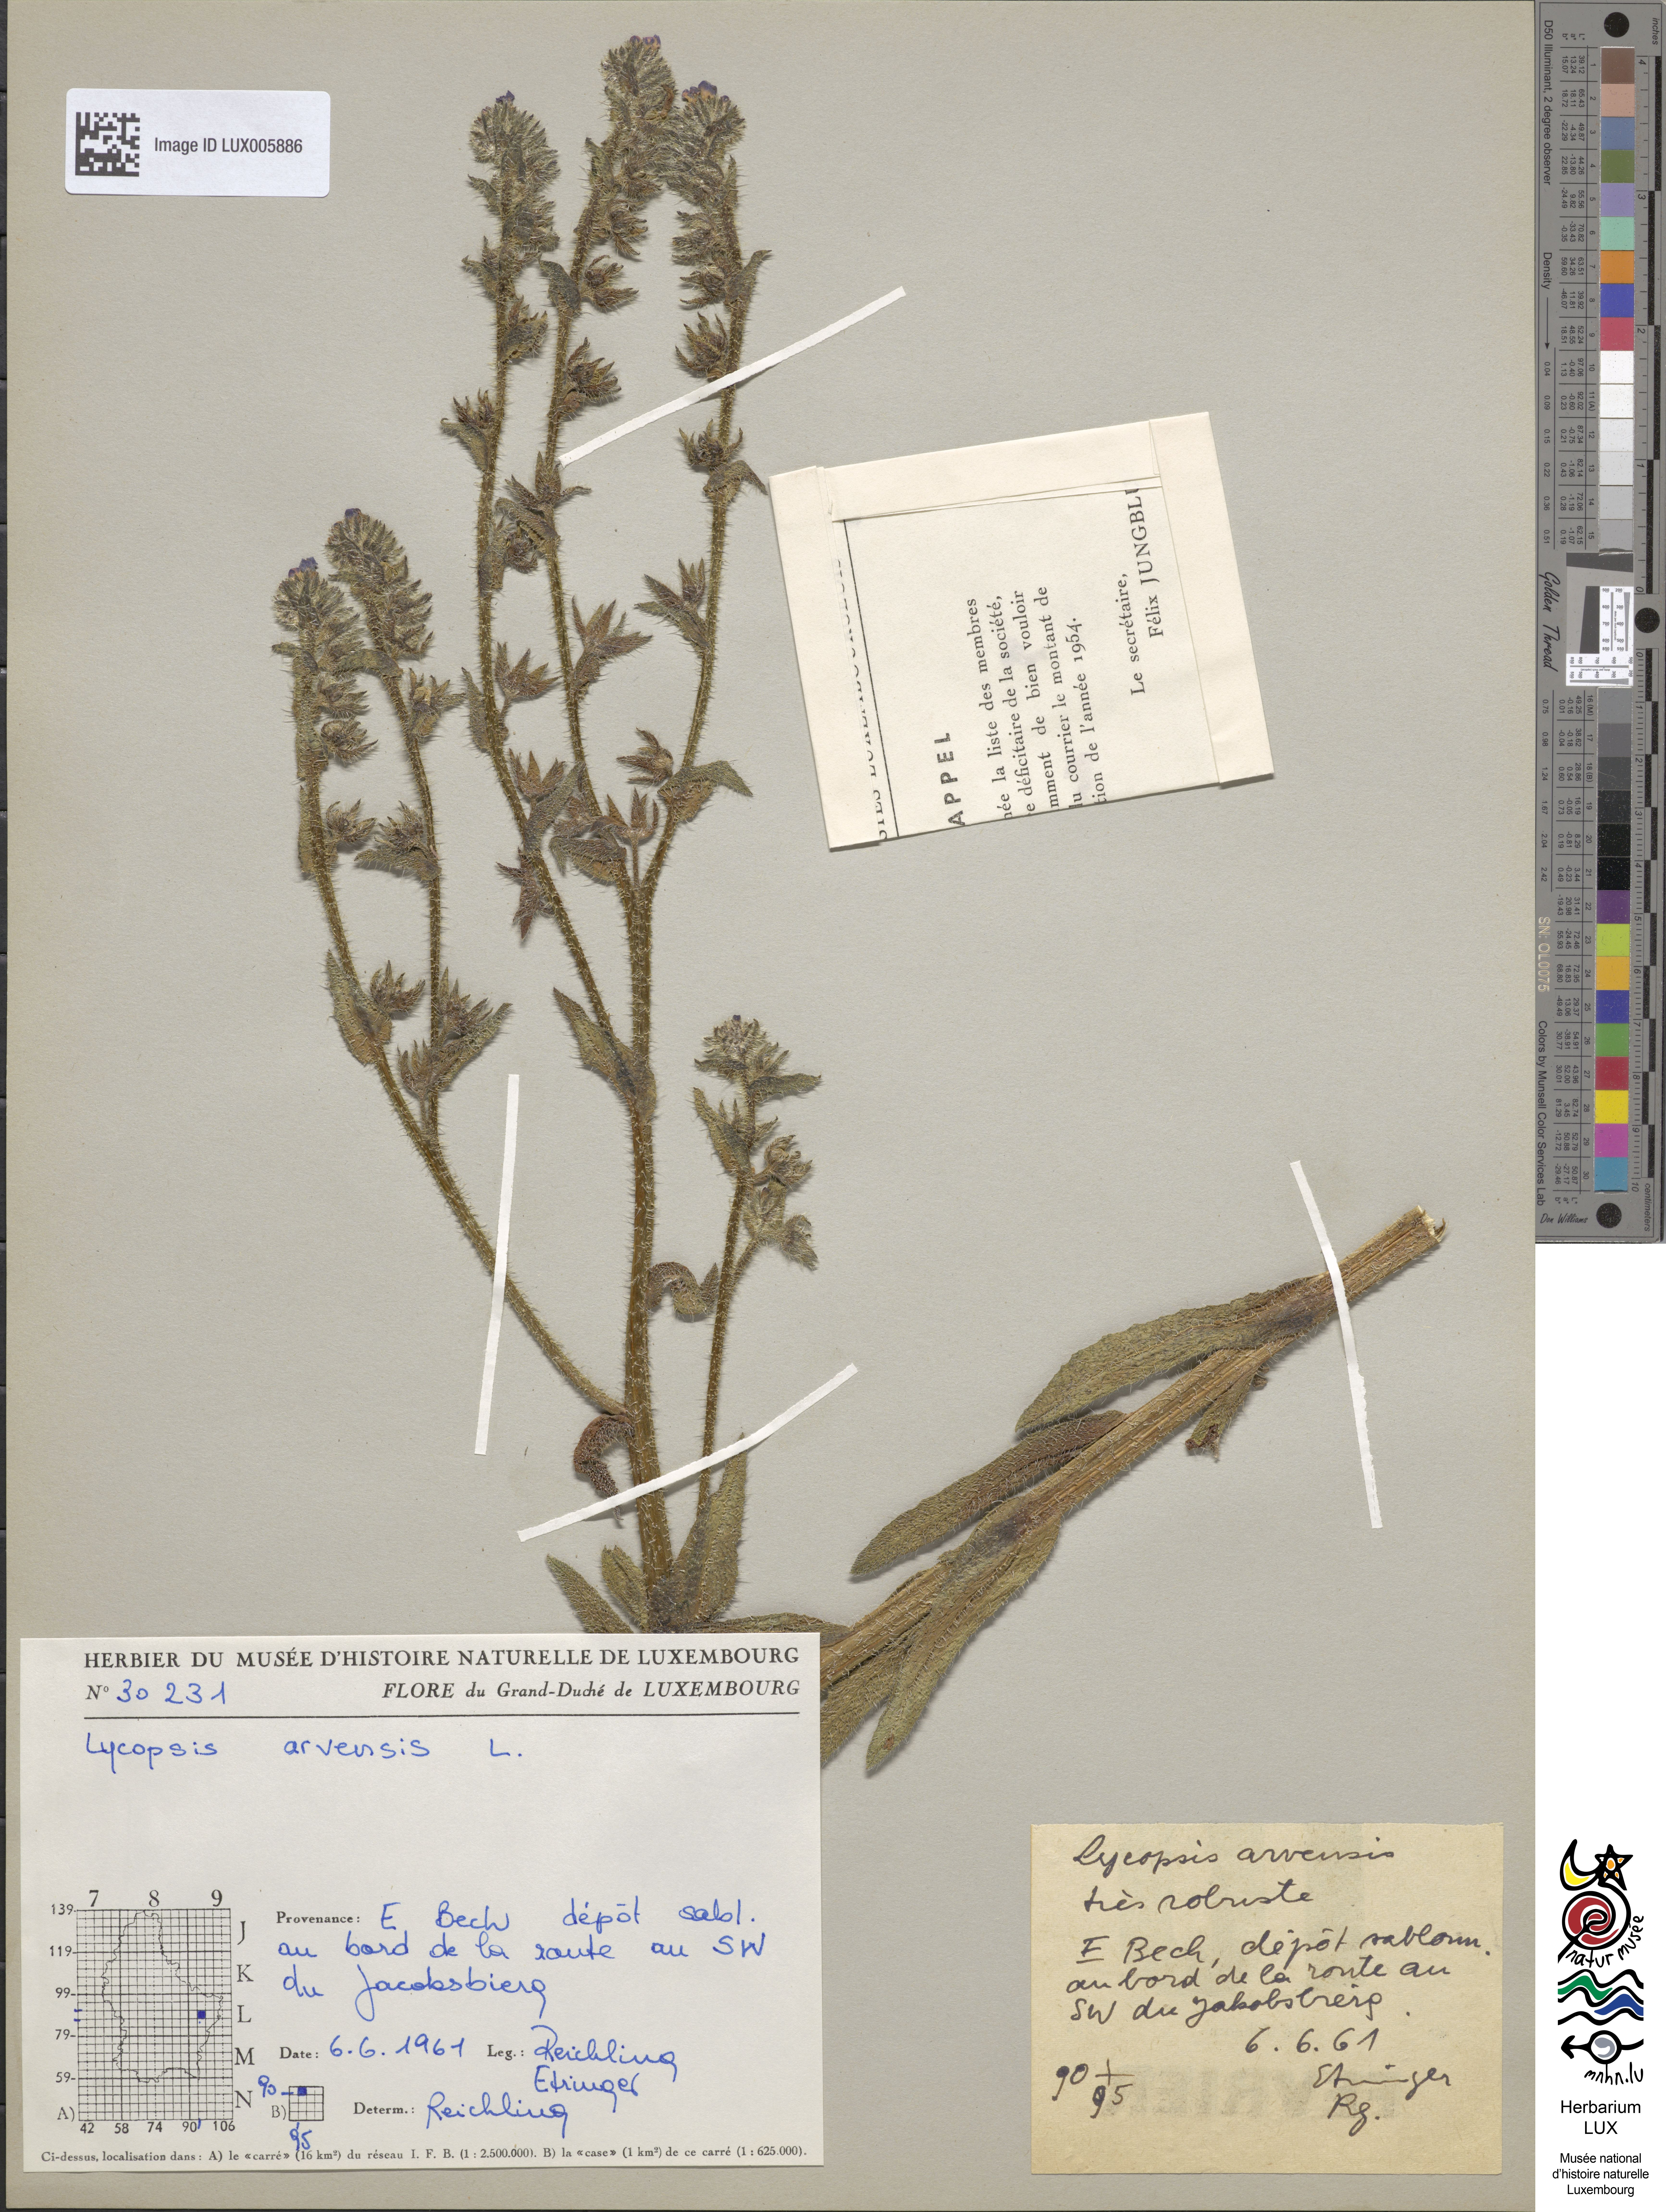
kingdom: Plantae
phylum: Tracheophyta
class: Magnoliopsida
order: Boraginales
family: Boraginaceae
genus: Lycopsis
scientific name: Lycopsis arvensis
